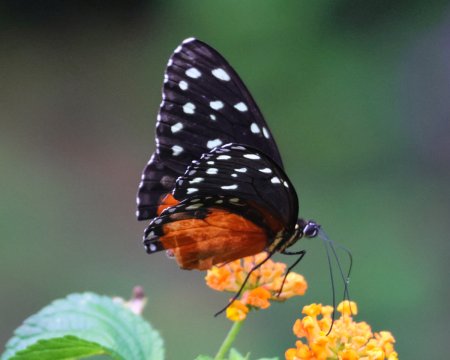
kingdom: Animalia
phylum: Arthropoda
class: Insecta
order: Lepidoptera
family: Nymphalidae
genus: Tithorea
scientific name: Tithorea tarricina
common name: Cream-spotted Tigerwing
